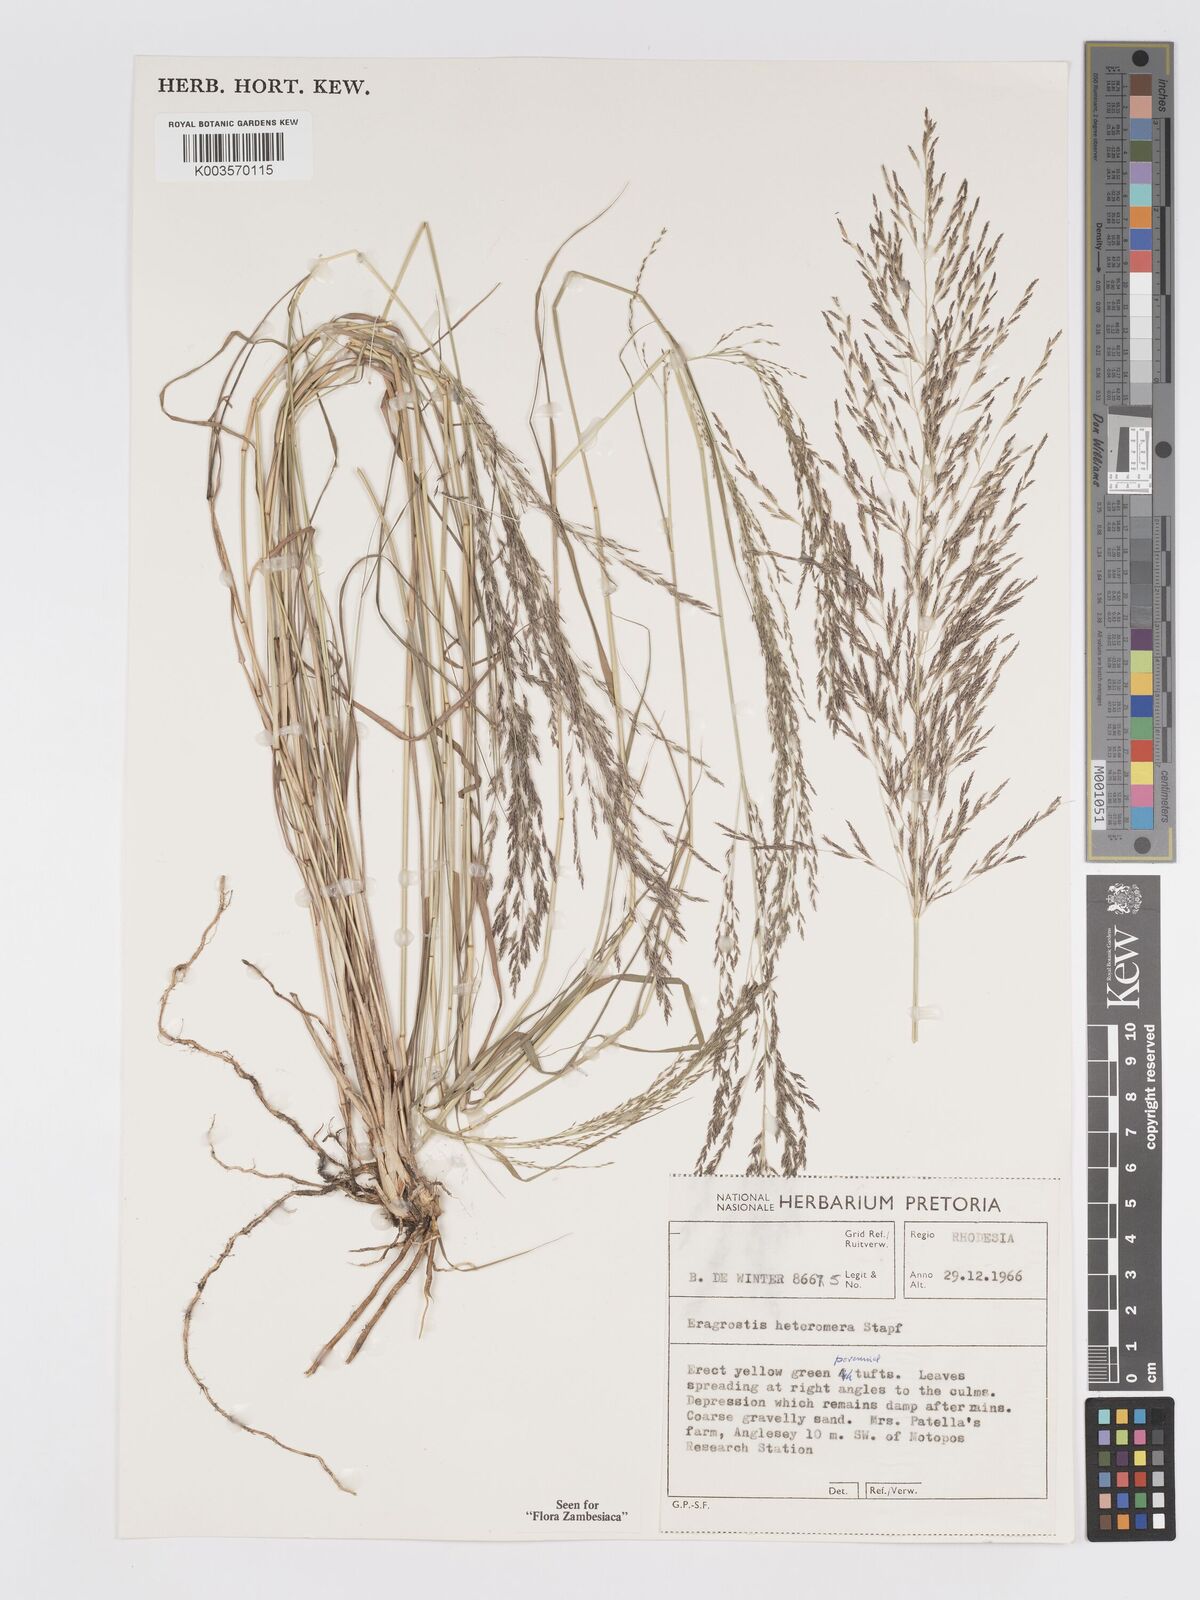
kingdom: Plantae
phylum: Tracheophyta
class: Liliopsida
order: Poales
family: Poaceae
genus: Eragrostis
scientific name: Eragrostis heteromera
